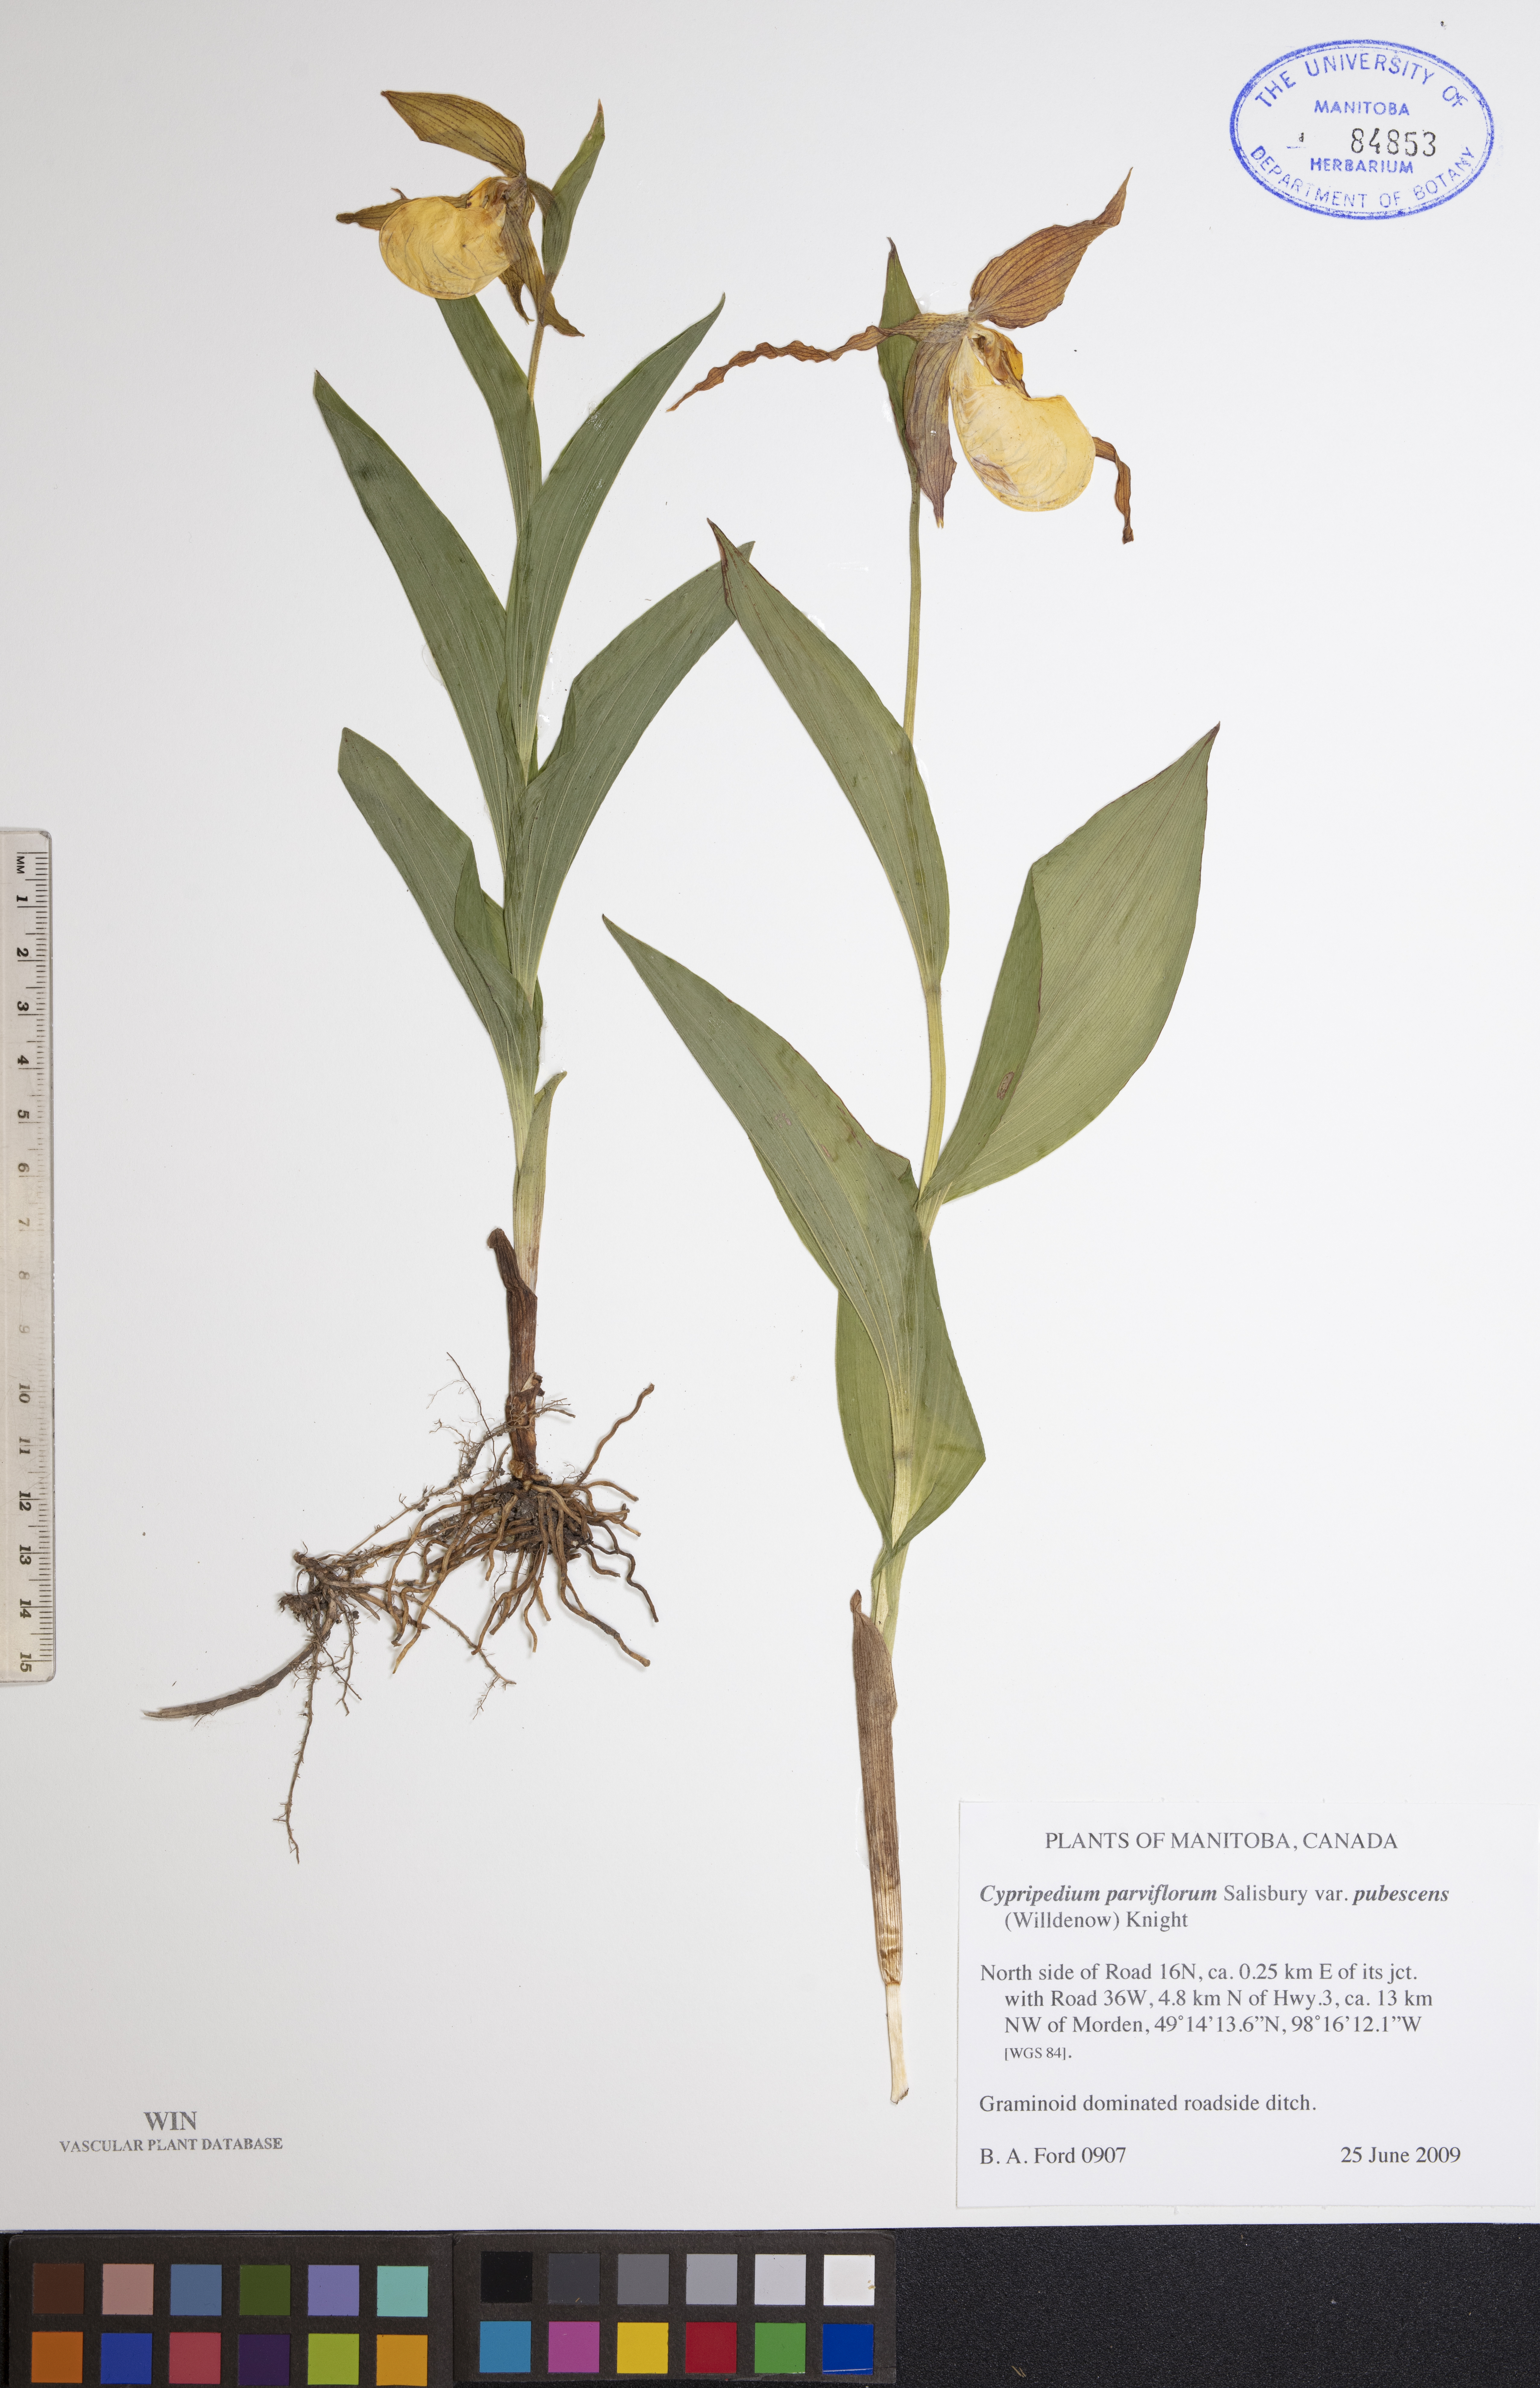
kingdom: Plantae
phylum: Tracheophyta
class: Liliopsida
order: Asparagales
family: Orchidaceae
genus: Cypripedium
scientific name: Cypripedium parviflorum
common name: American yellow lady's-slipper
